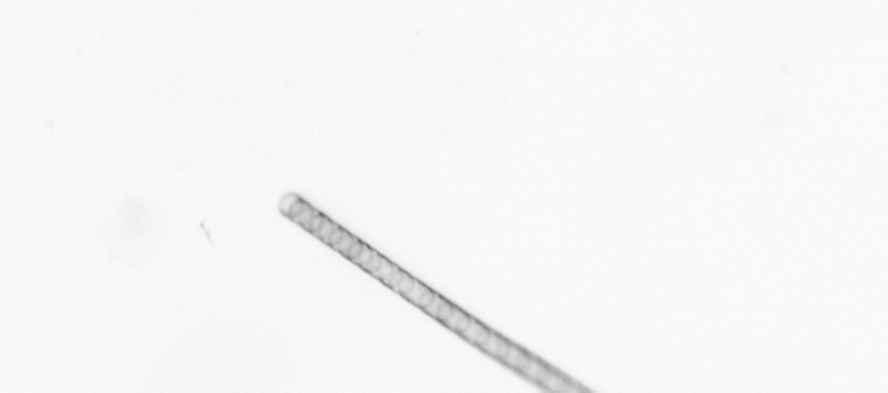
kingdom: Chromista
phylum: Ochrophyta
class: Bacillariophyceae
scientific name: Bacillariophyceae
